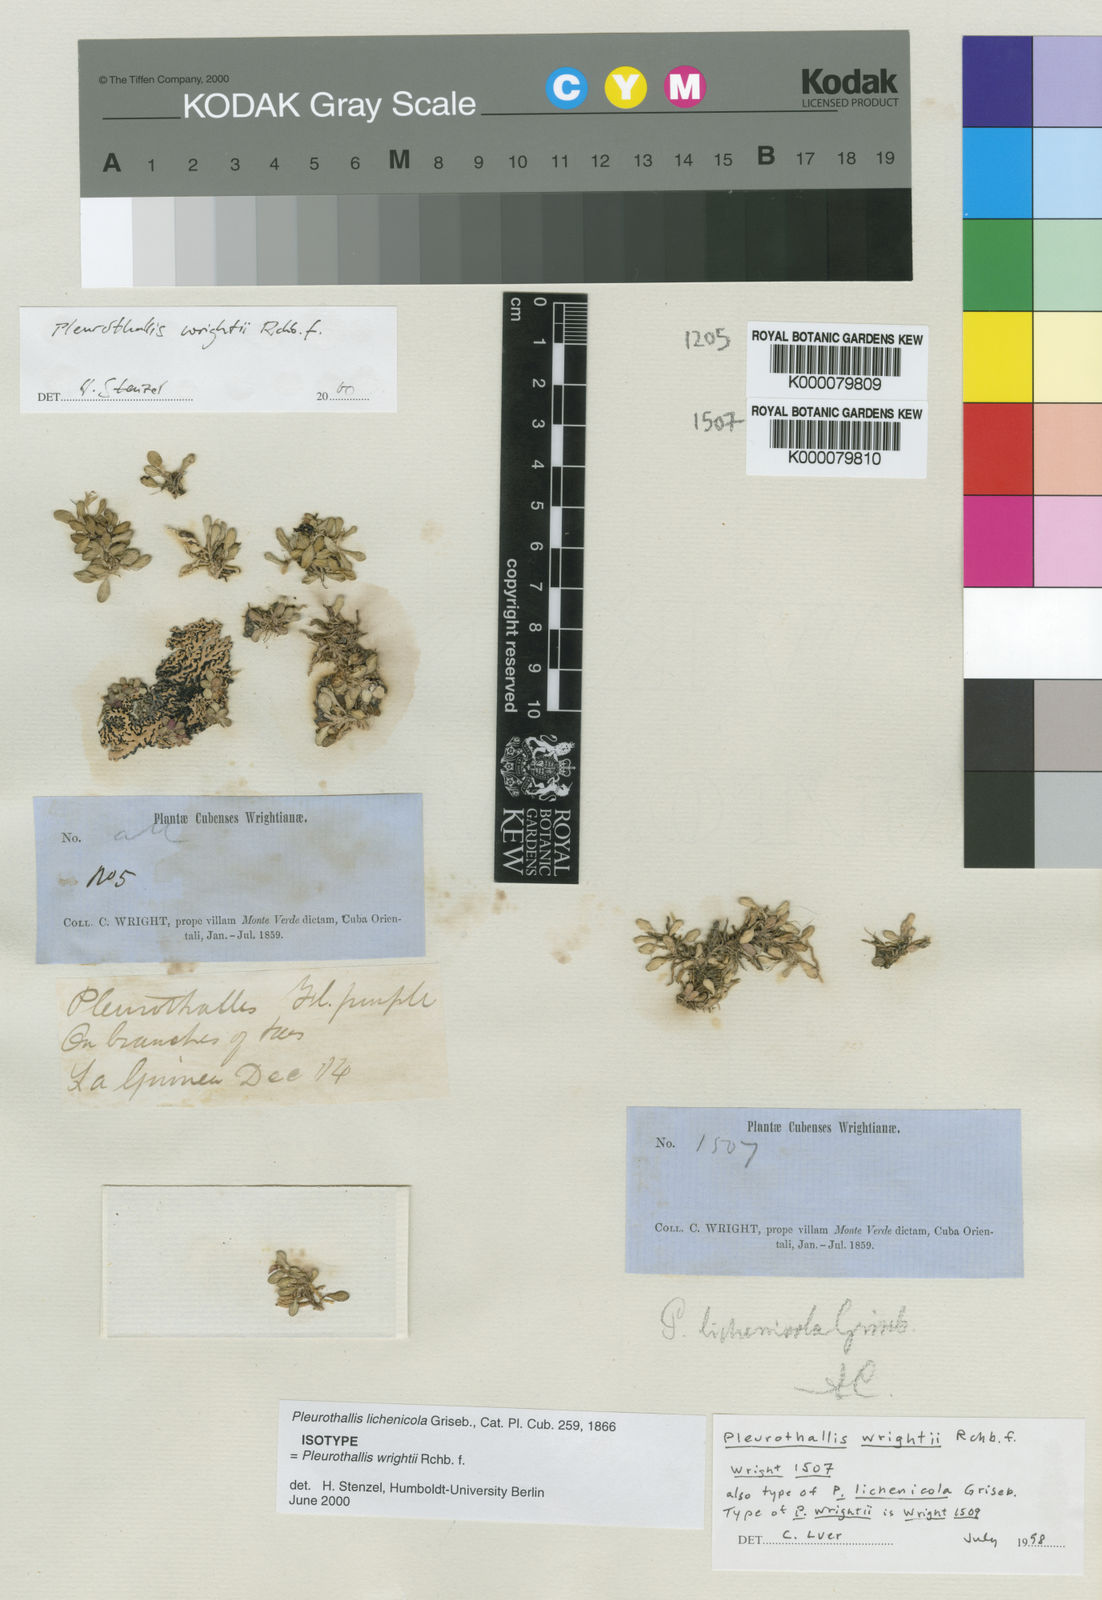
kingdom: Plantae
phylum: Tracheophyta
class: Liliopsida
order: Asparagales
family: Orchidaceae
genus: Specklinia
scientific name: Specklinia wrightii
